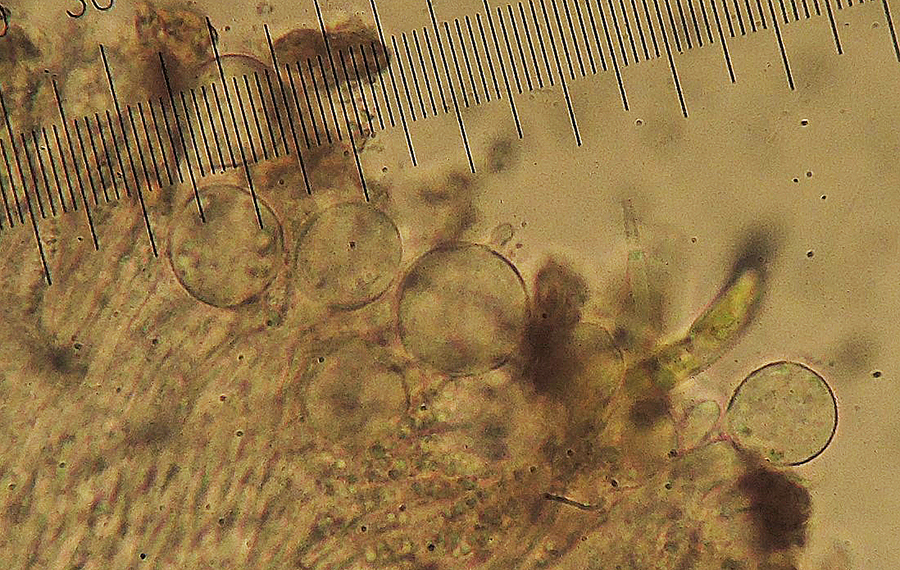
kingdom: Fungi
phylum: Chytridiomycota
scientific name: Chytridiomycota
